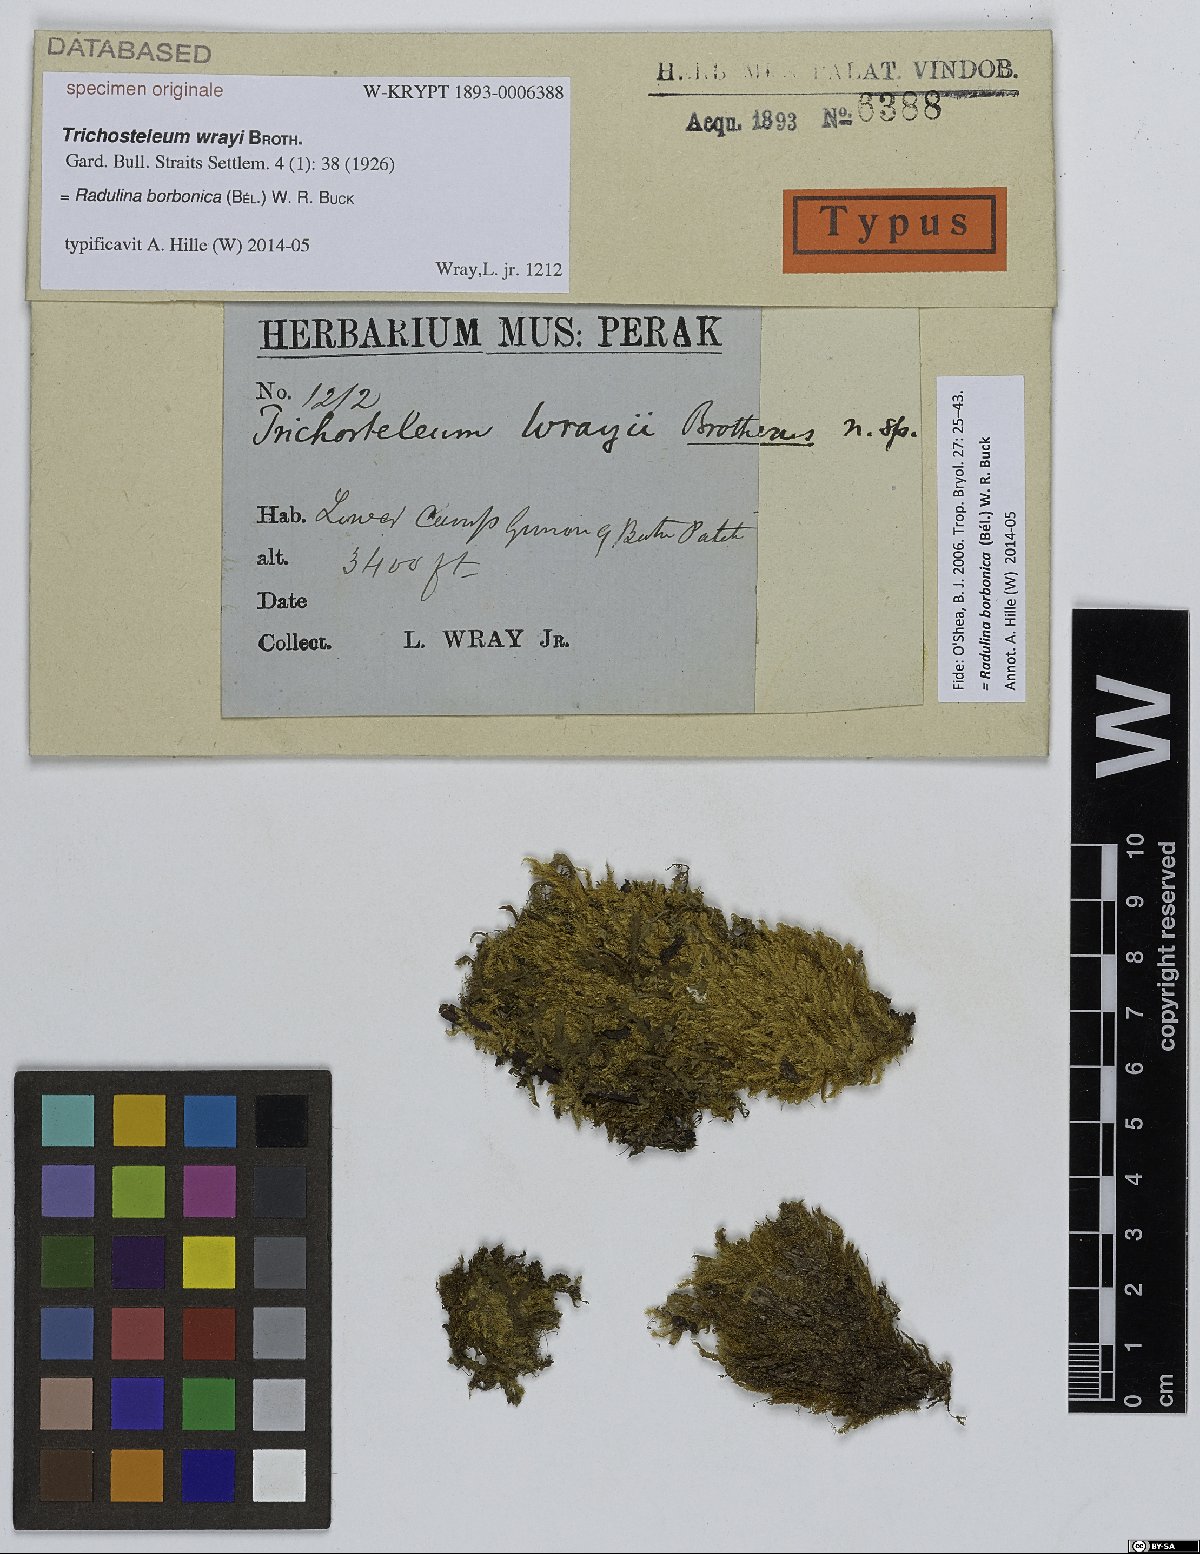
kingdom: Plantae
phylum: Bryophyta
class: Bryopsida
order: Hypnales
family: Sematophyllaceae
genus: Trichosteleum
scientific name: Trichosteleum
